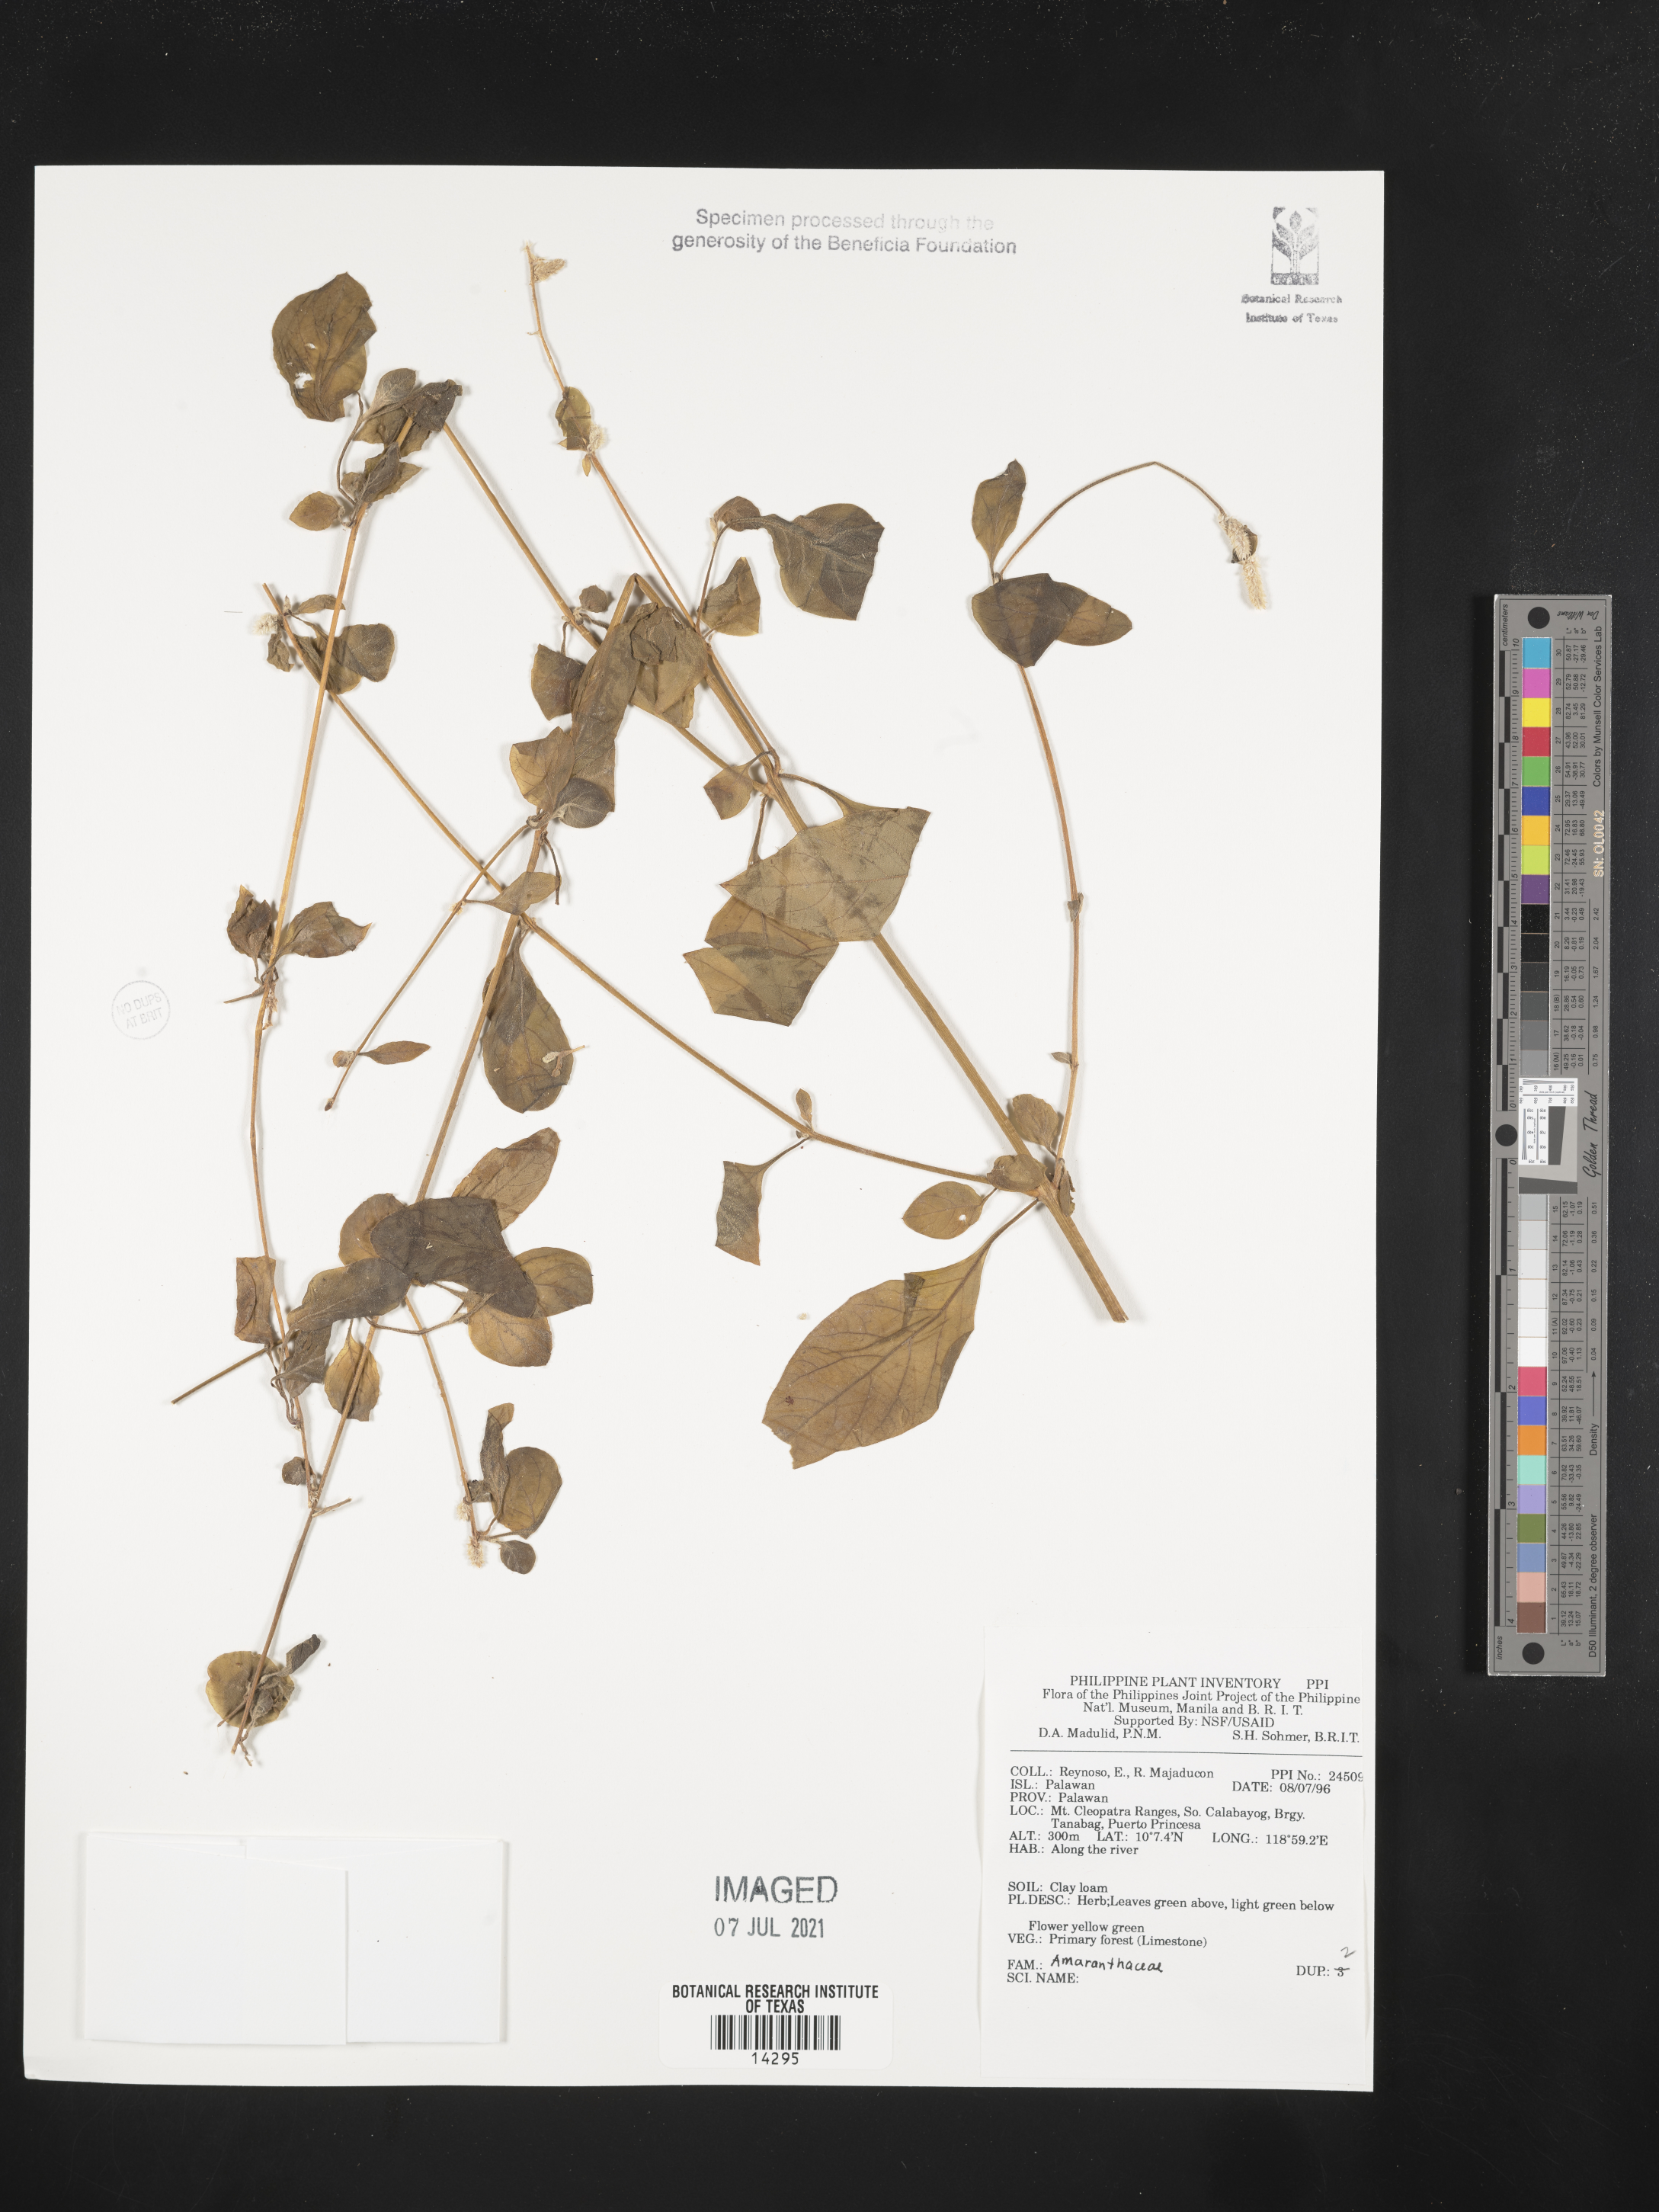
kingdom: Plantae
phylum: Tracheophyta
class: Magnoliopsida
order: Caryophyllales
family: Amaranthaceae
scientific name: Amaranthaceae
